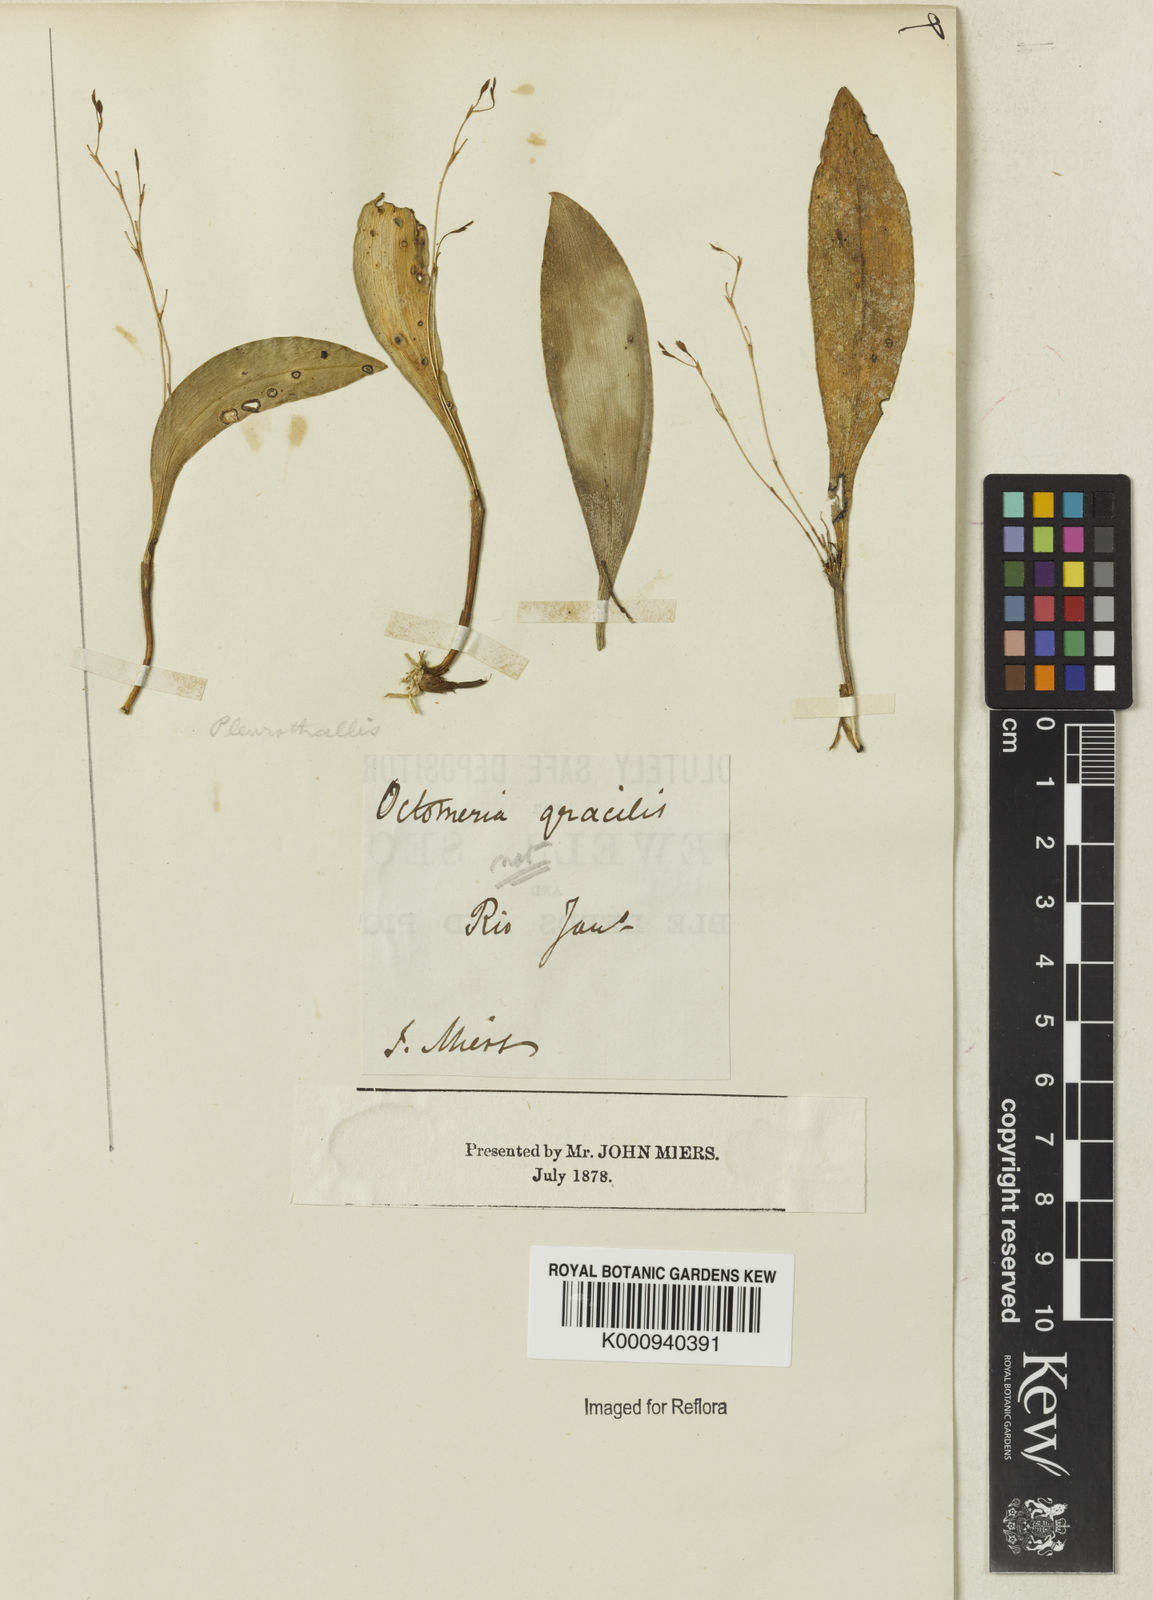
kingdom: Plantae
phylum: Tracheophyta
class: Liliopsida
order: Asparagales
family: Orchidaceae
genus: Pleurothallis
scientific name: Pleurothallis
